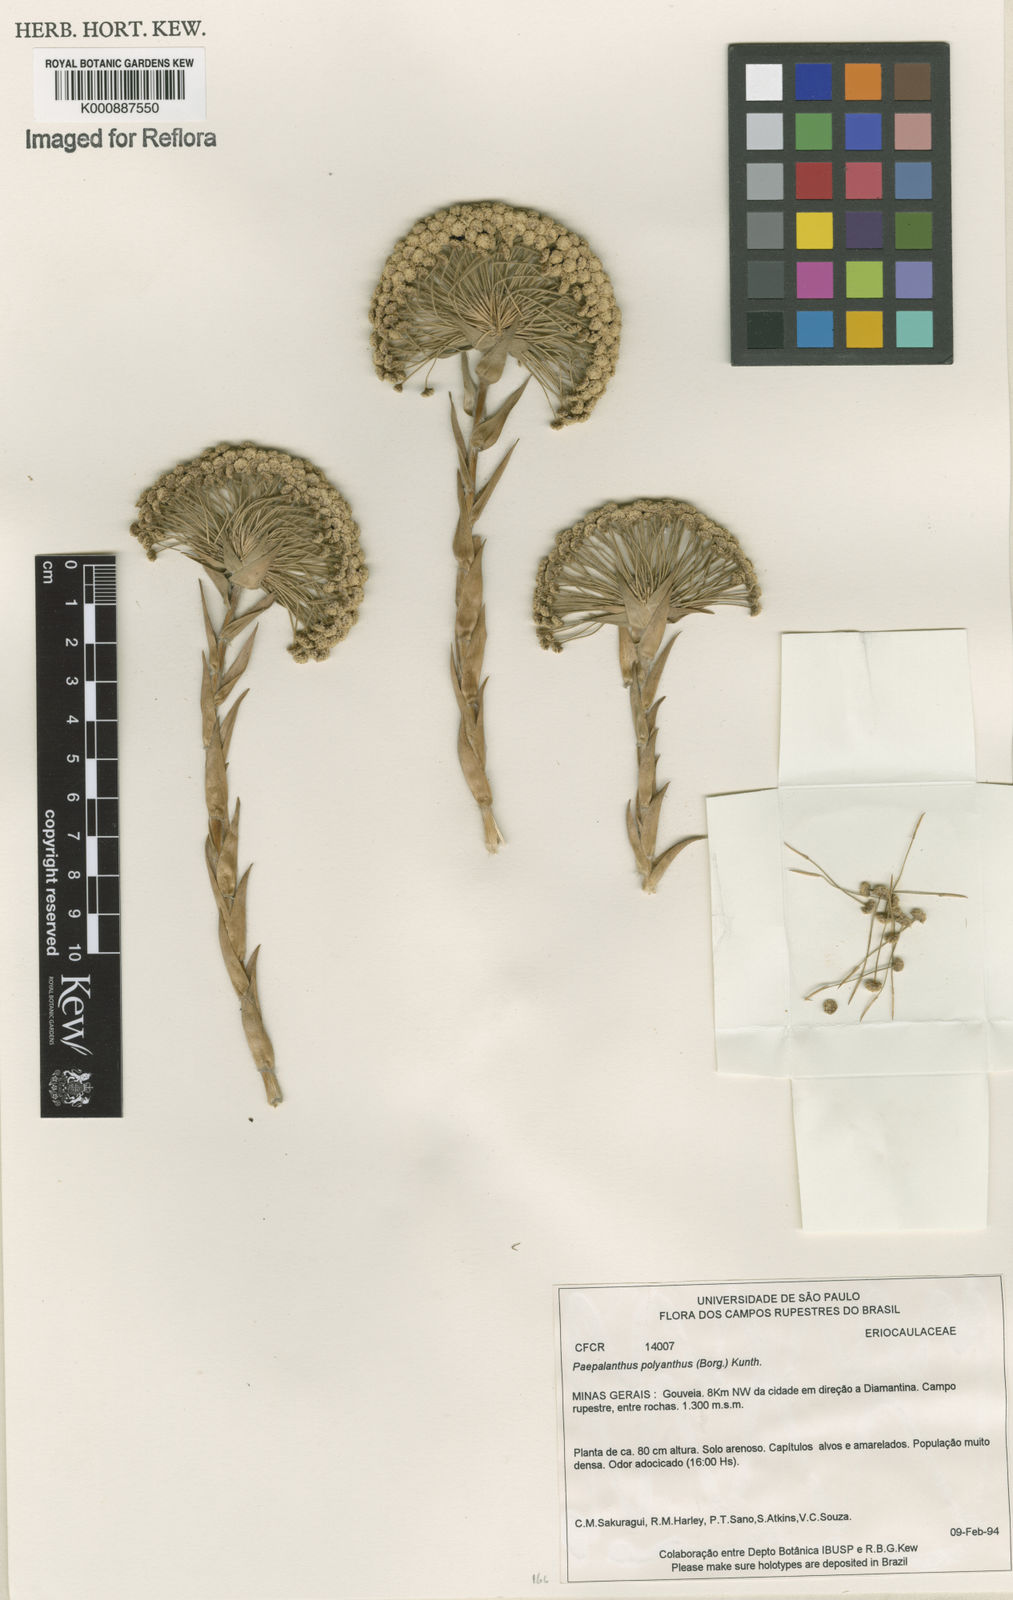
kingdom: Plantae
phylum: Tracheophyta
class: Liliopsida
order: Poales
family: Eriocaulaceae
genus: Paepalanthus
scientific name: Paepalanthus polyanthus
